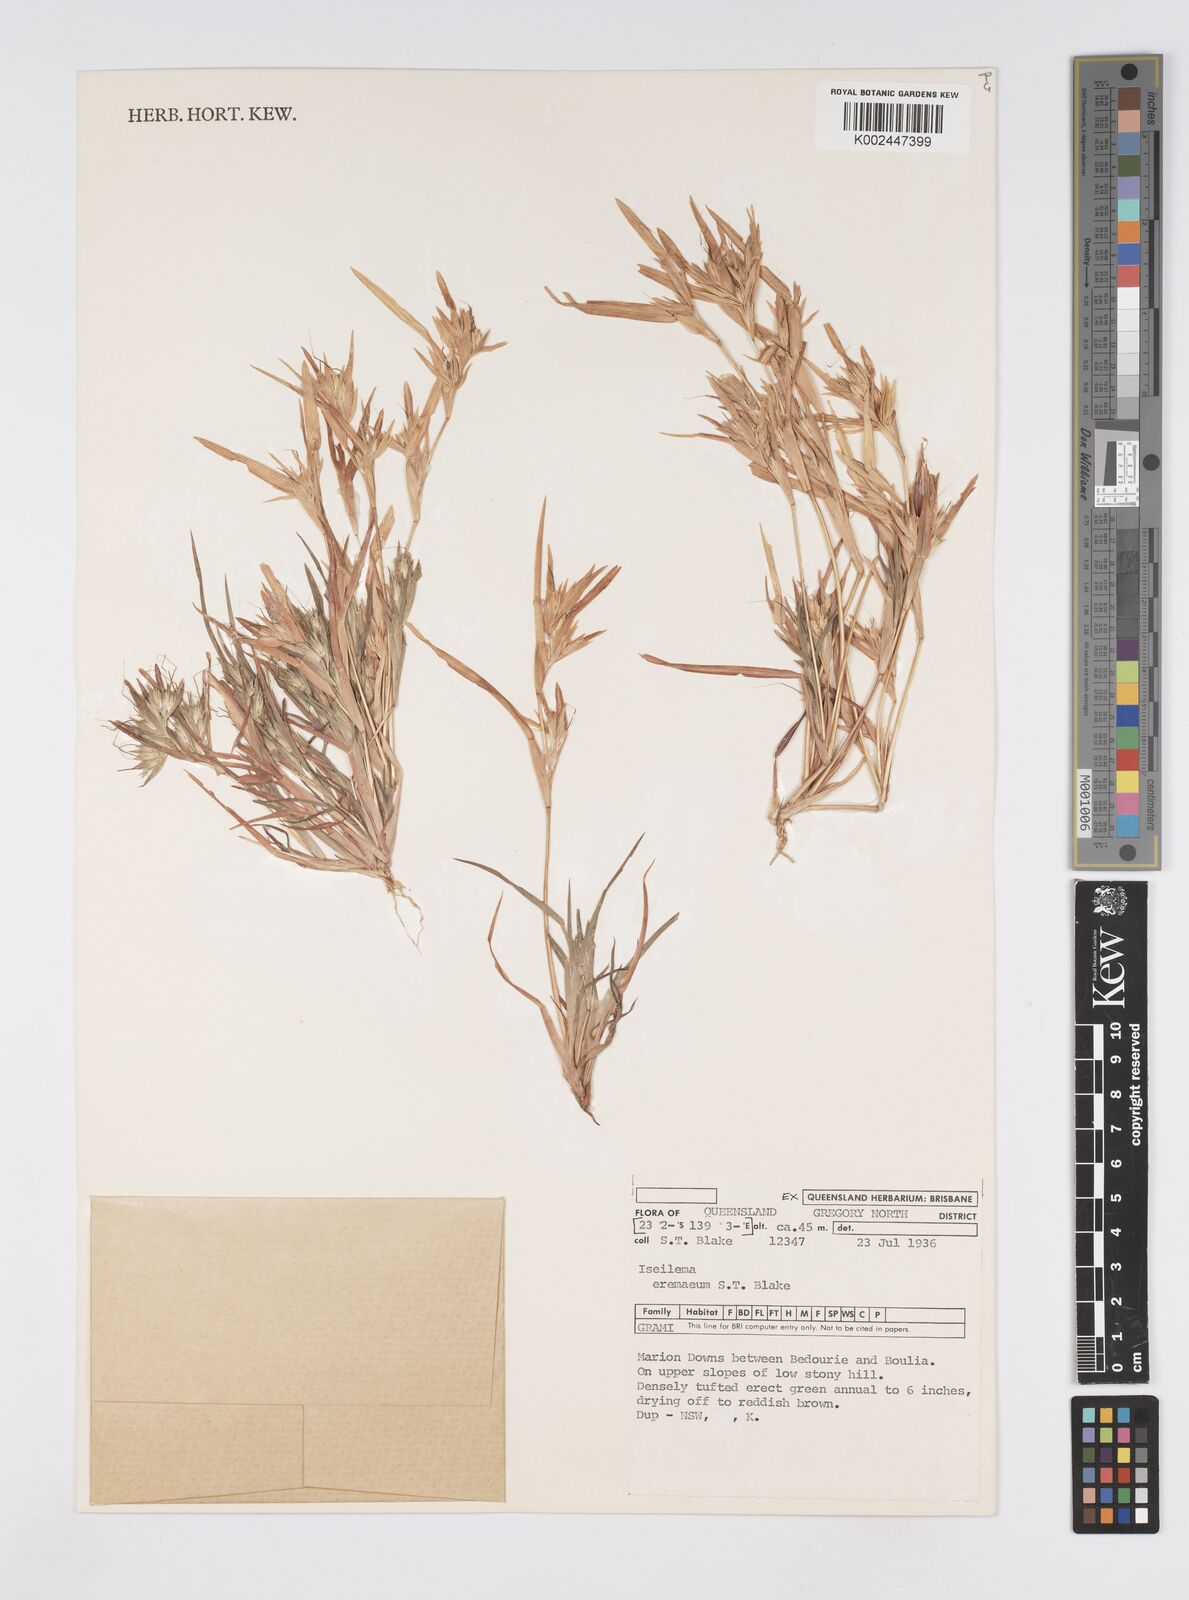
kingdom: Plantae
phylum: Tracheophyta
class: Liliopsida
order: Poales
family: Poaceae
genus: Iseilema
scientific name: Iseilema eremaeum
